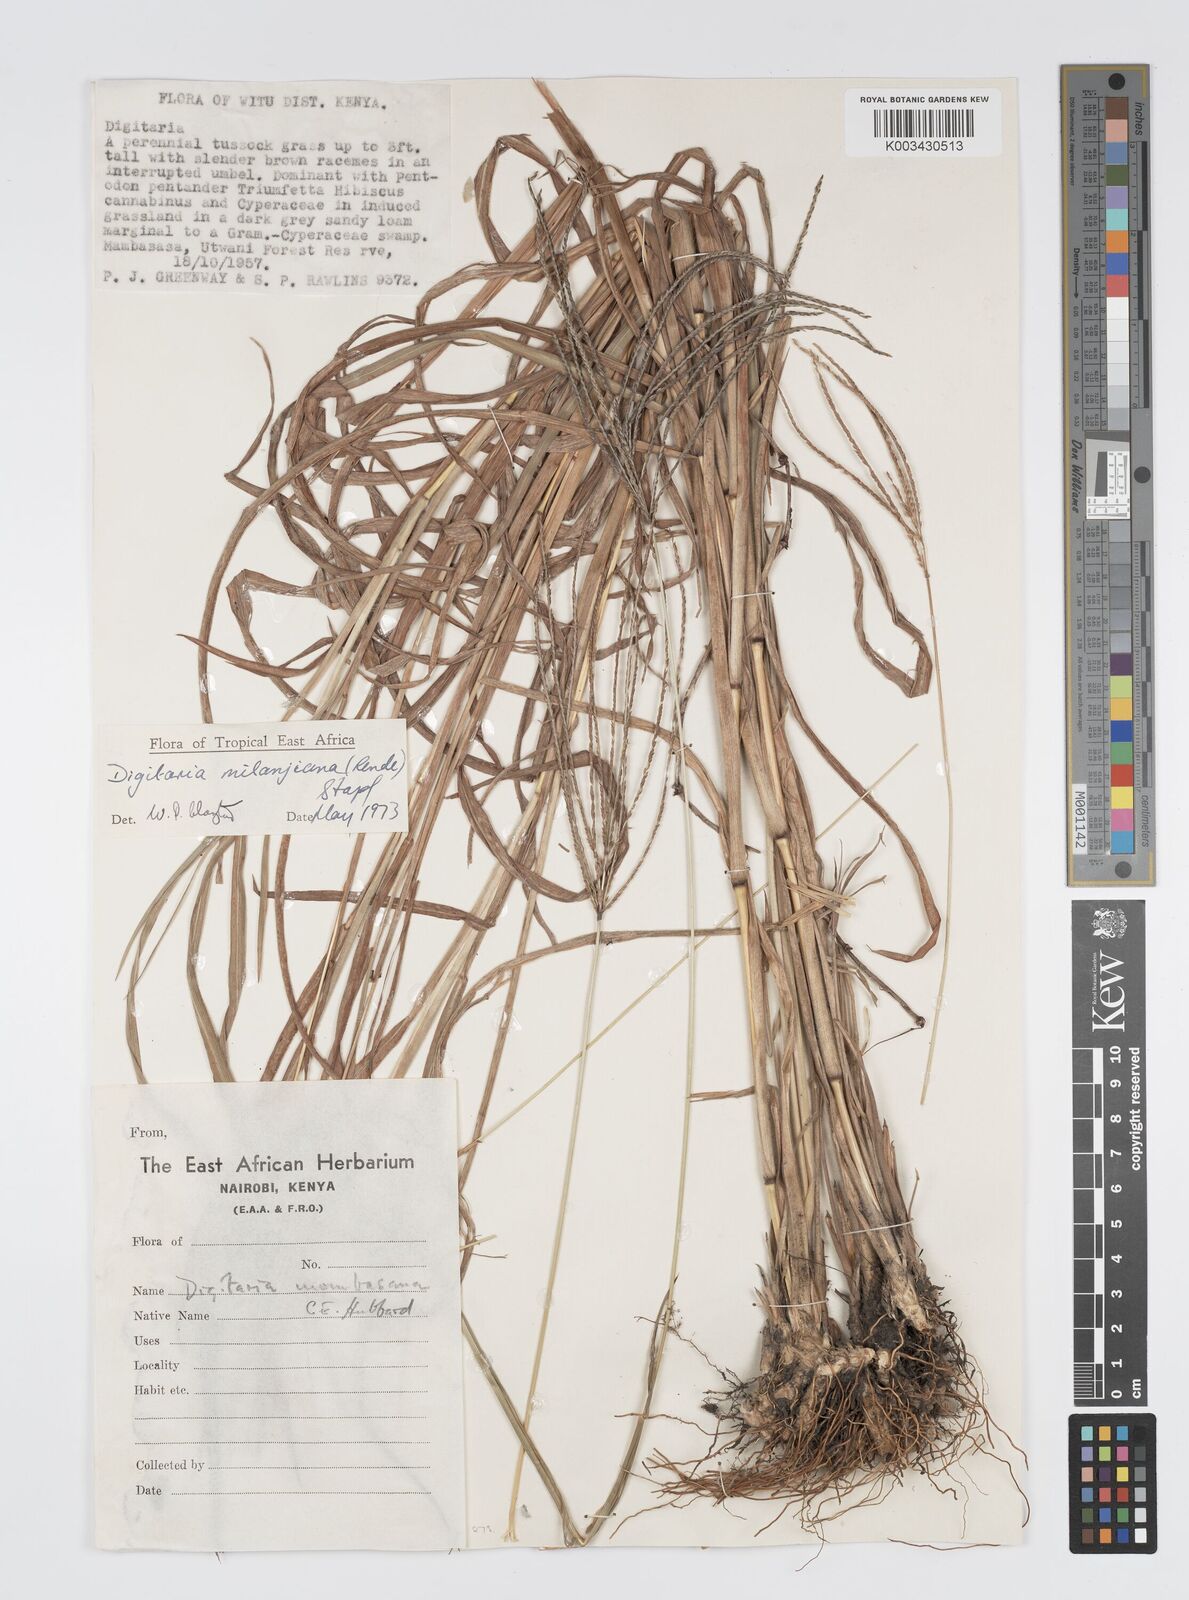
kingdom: Plantae
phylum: Tracheophyta
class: Liliopsida
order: Poales
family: Poaceae
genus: Digitaria
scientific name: Digitaria milanjiana
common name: Madagascar crabgrass
